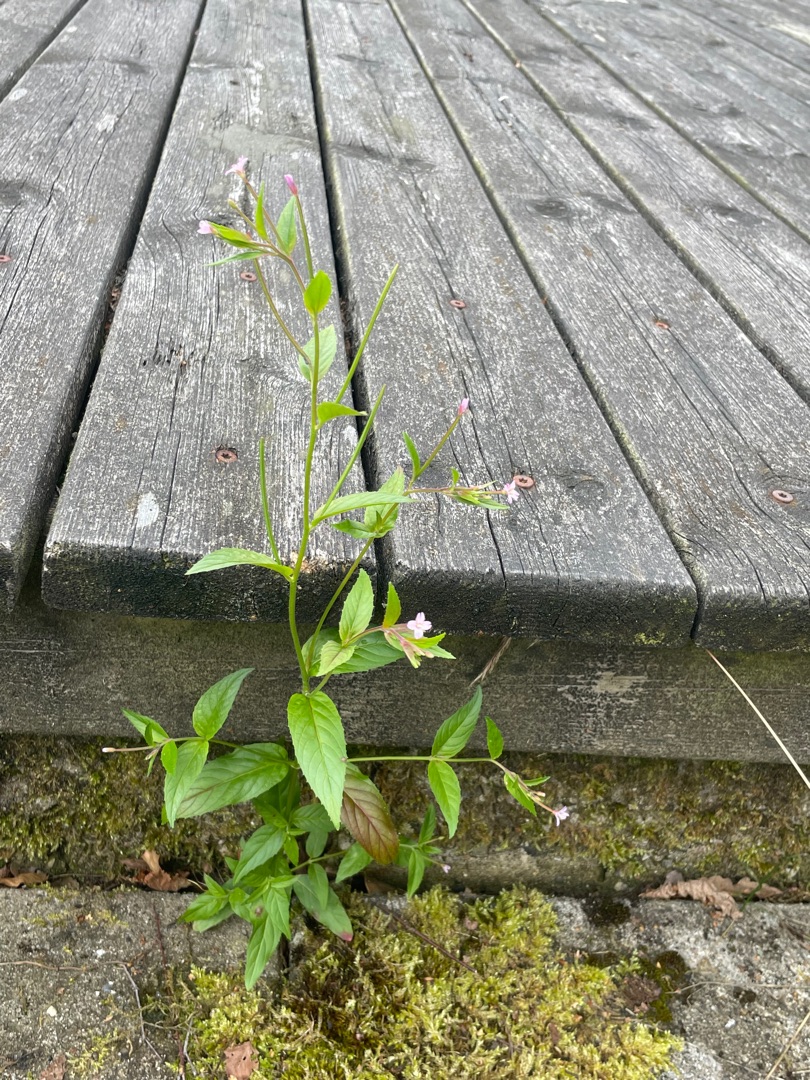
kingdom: Plantae
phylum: Tracheophyta
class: Magnoliopsida
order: Myrtales
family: Onagraceae
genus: Epilobium
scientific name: Epilobium
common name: Dueurtslægten
